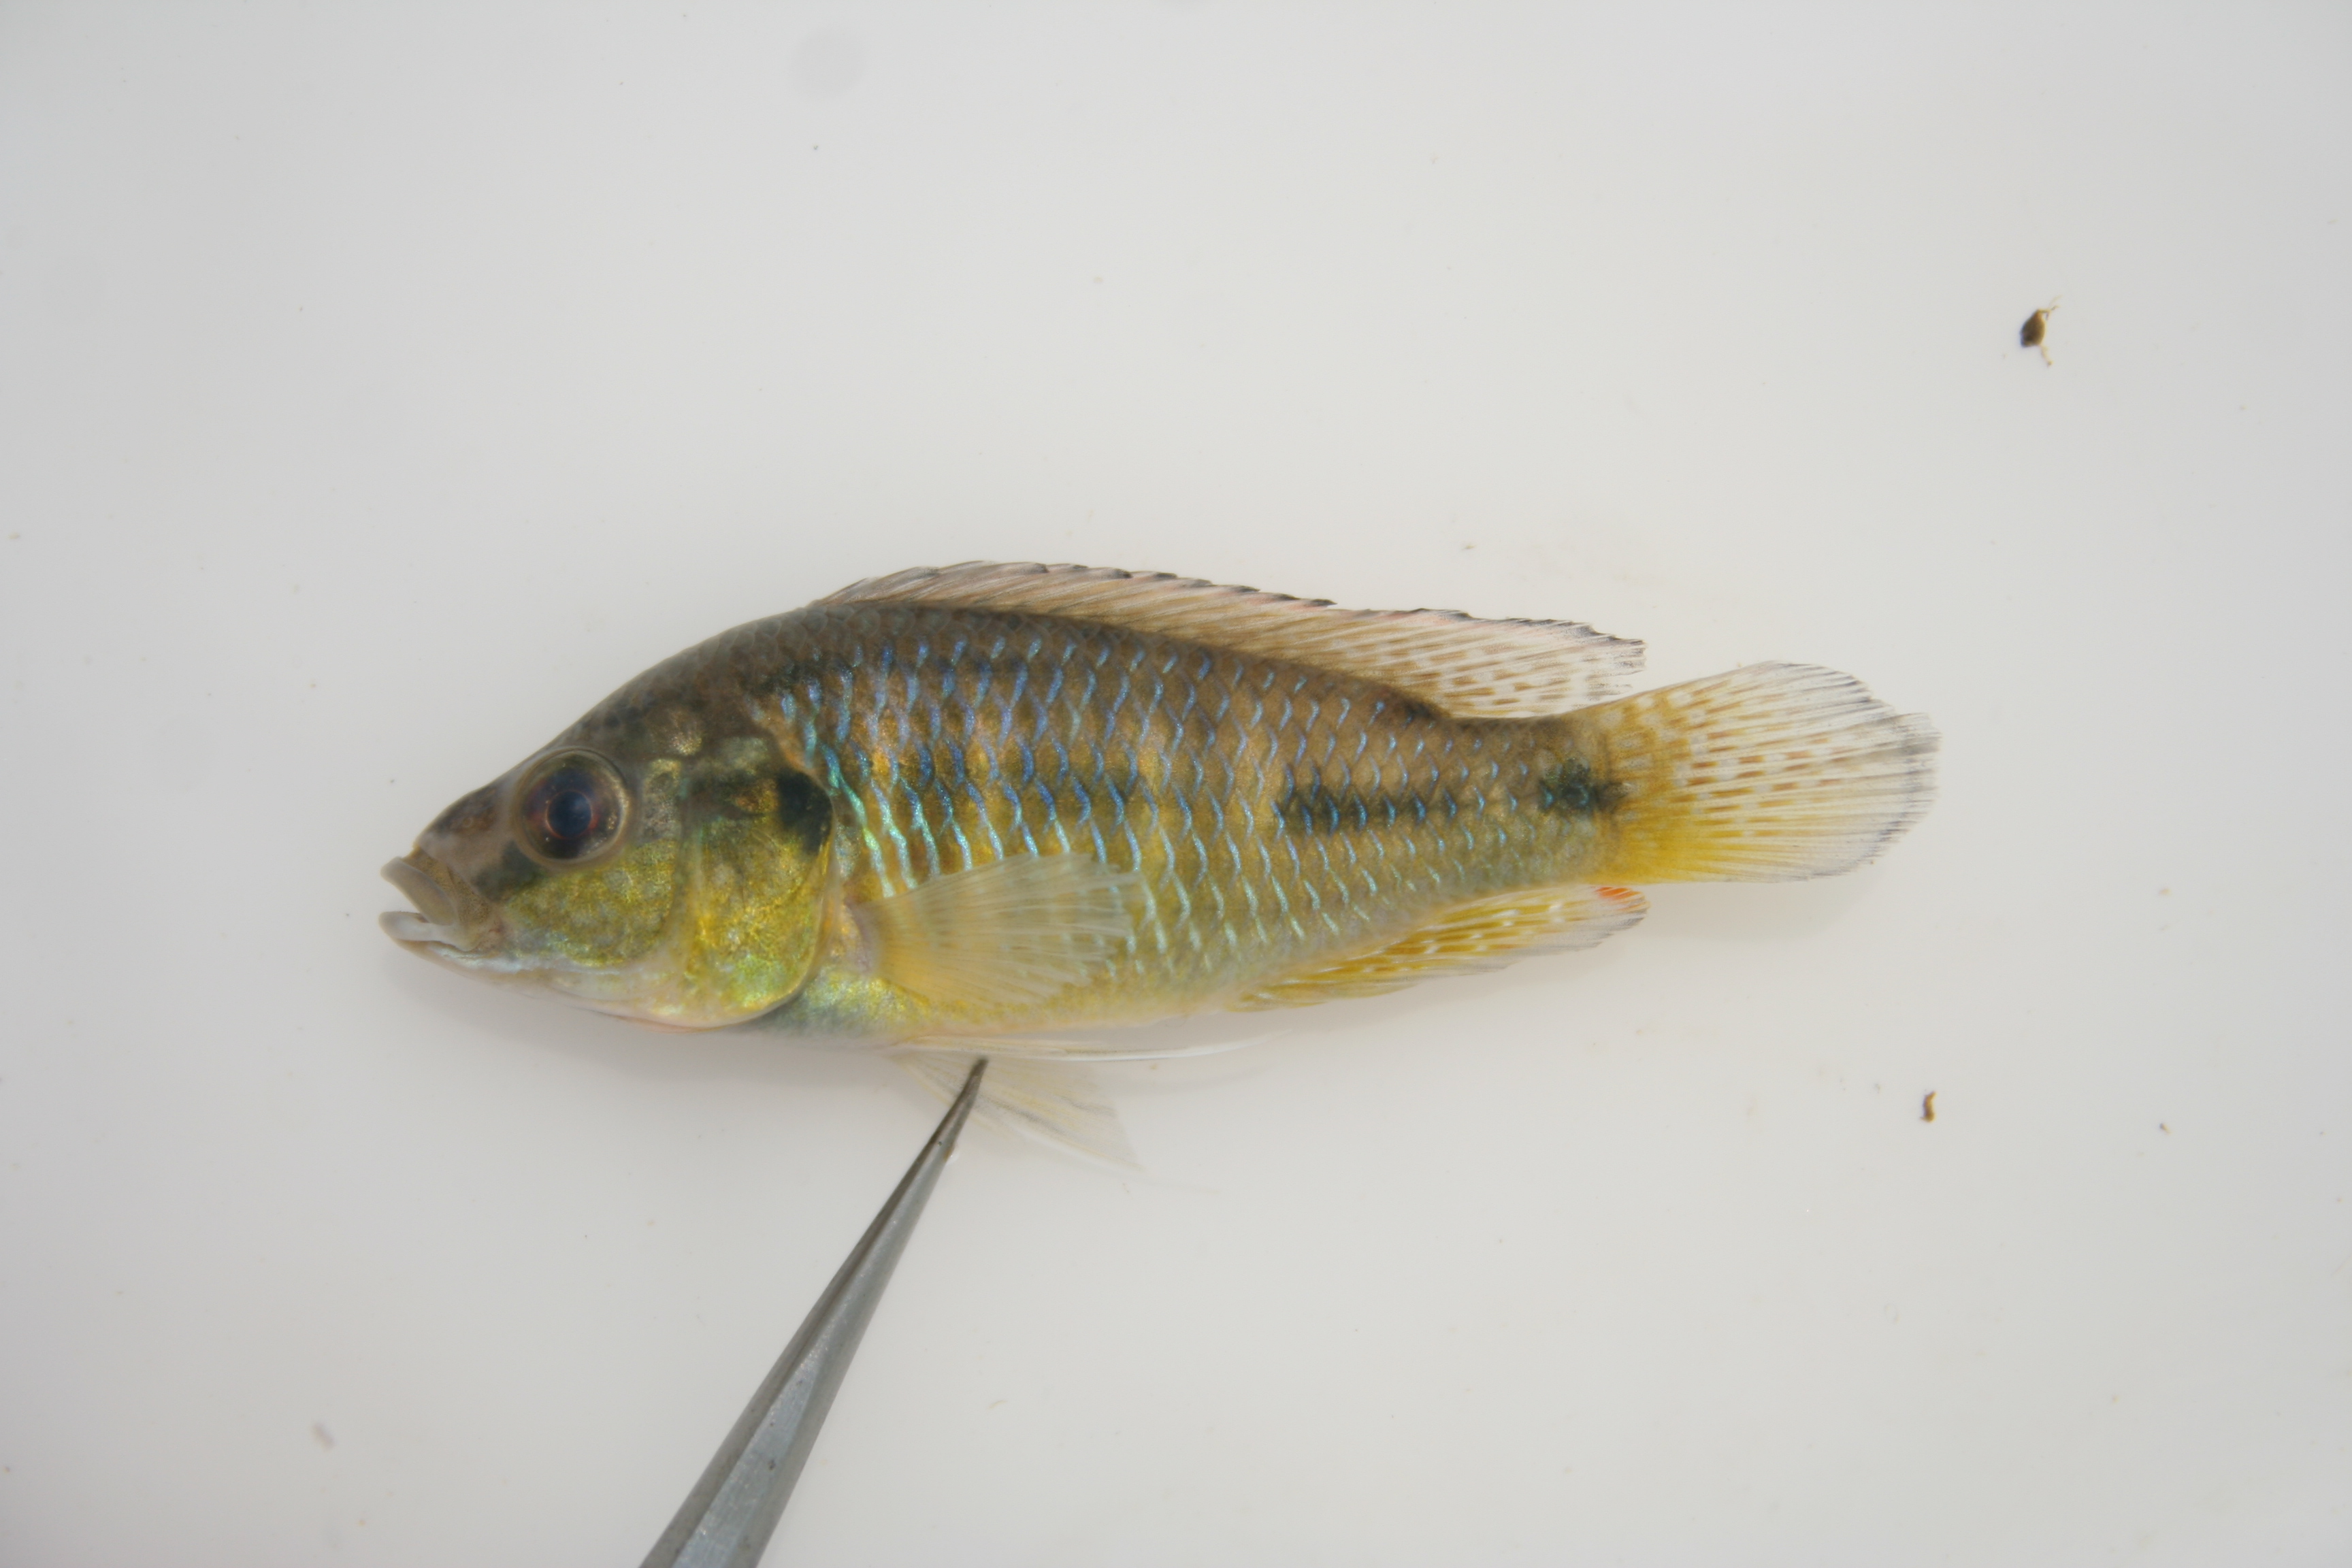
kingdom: Animalia
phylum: Chordata
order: Perciformes
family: Cichlidae
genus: Pseudocrenilabrus
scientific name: Pseudocrenilabrus philander
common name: Southern mouthbrooder
